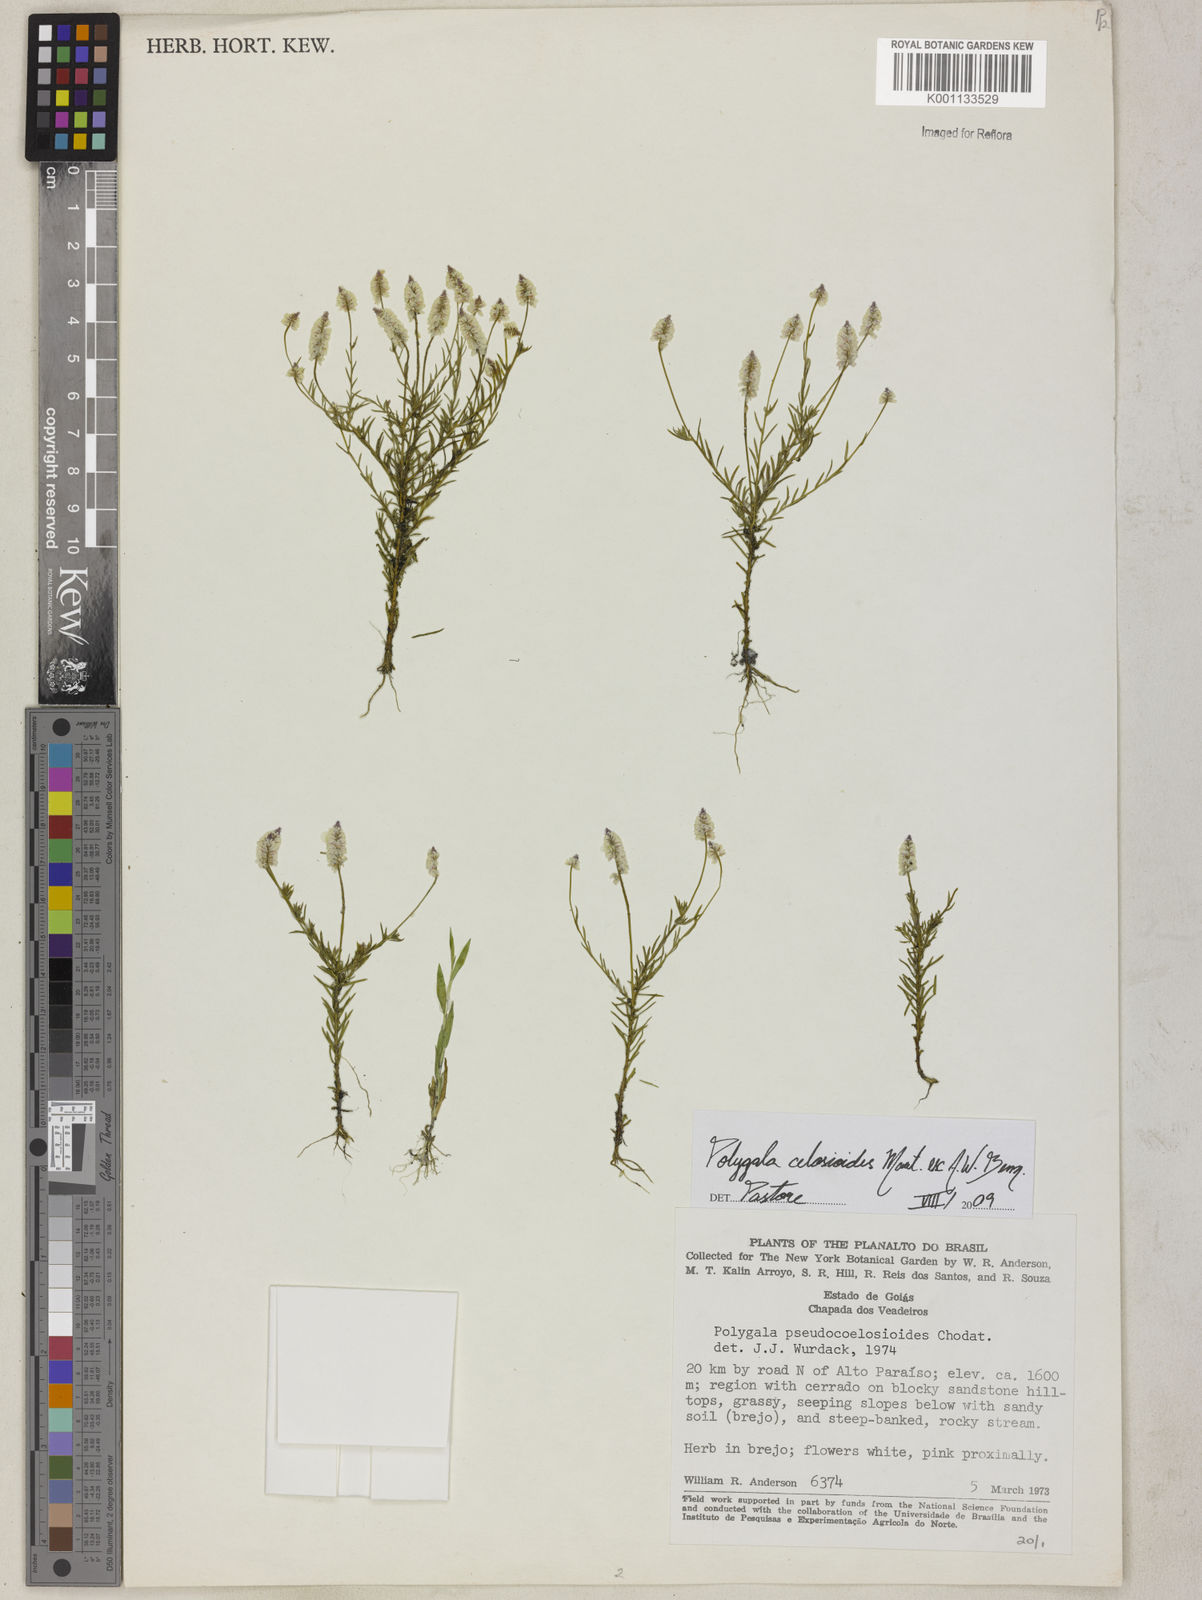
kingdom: Plantae
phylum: Tracheophyta
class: Magnoliopsida
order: Fabales
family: Polygalaceae
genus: Polygala
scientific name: Polygala celosioides
